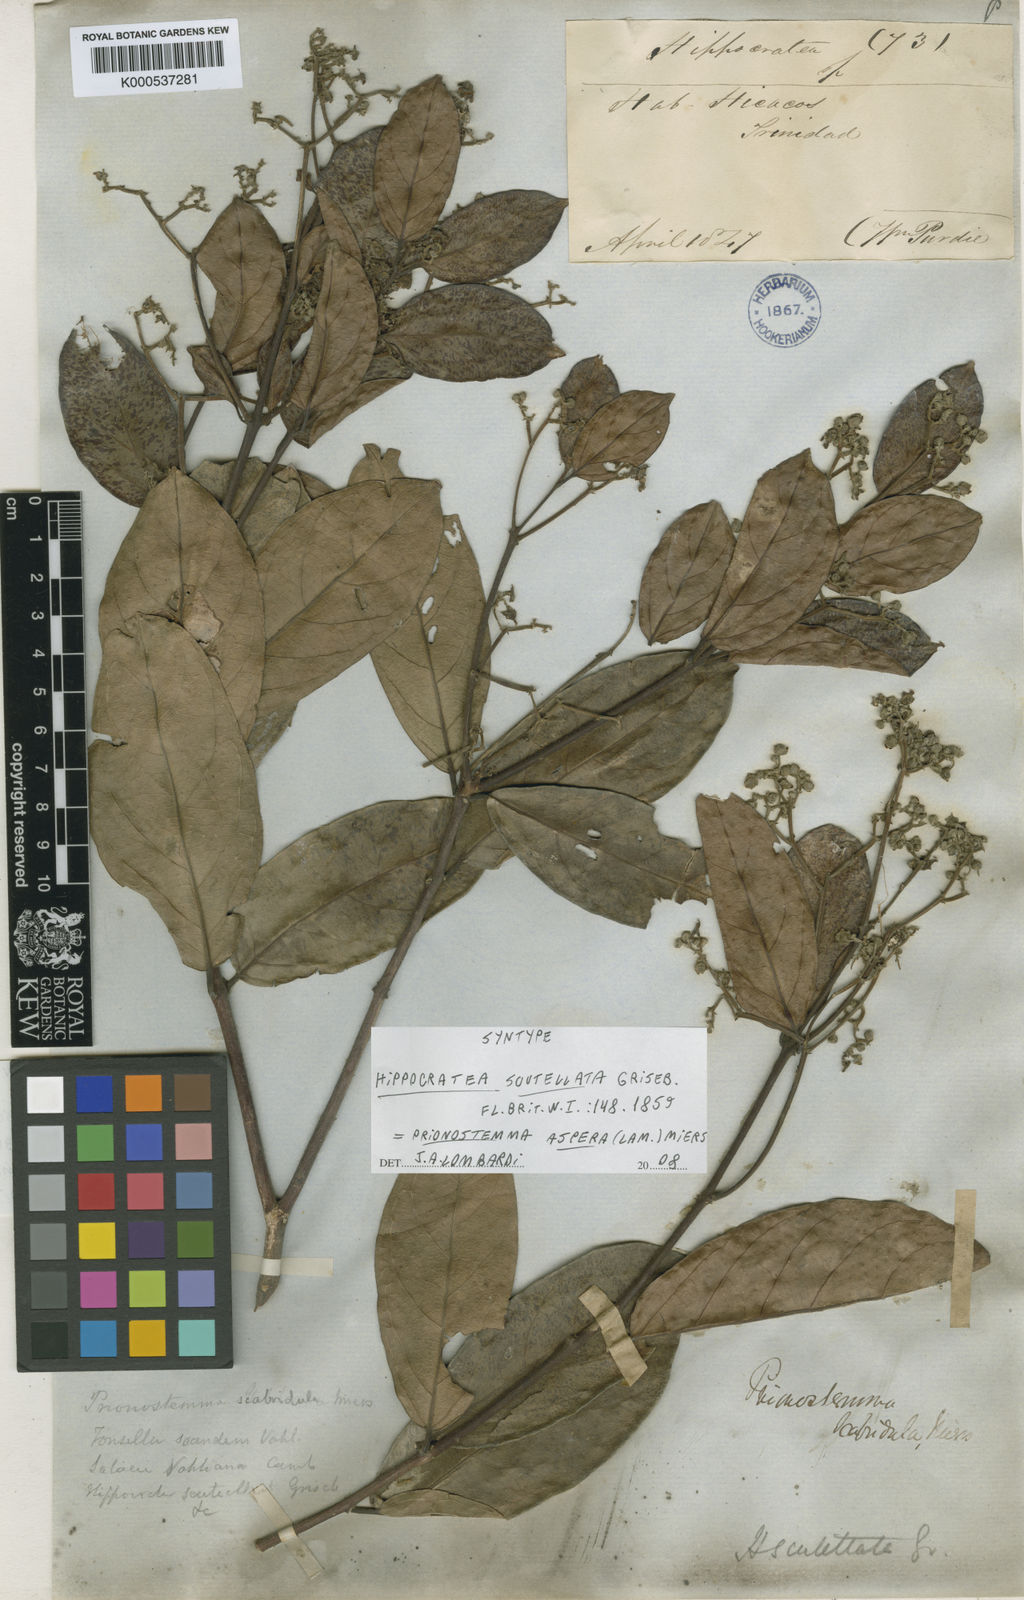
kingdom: Plantae
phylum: Tracheophyta
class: Magnoliopsida
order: Celastrales
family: Celastraceae
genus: Prionostemma
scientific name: Prionostemma aspera
